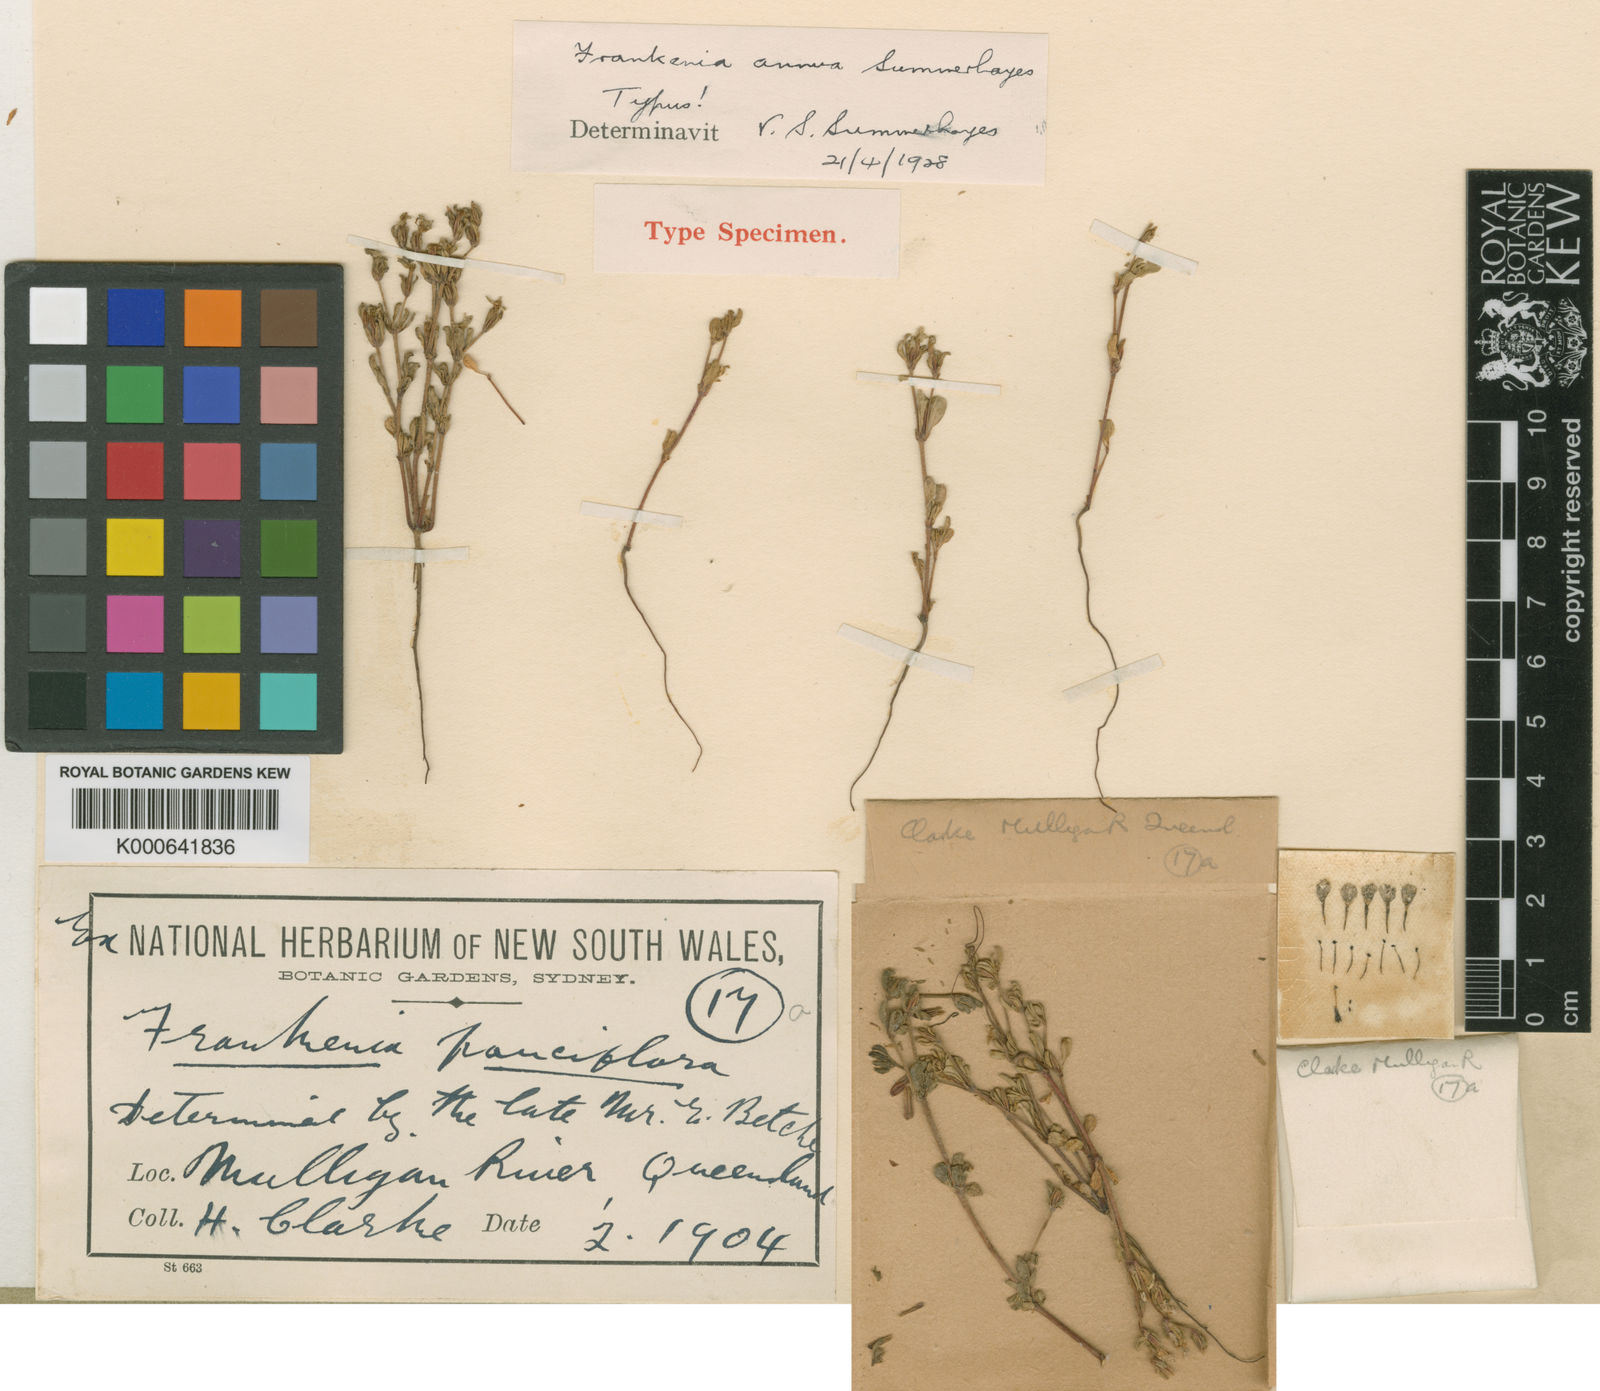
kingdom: Plantae
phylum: Tracheophyta
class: Magnoliopsida
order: Caryophyllales
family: Frankeniaceae
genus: Frankenia
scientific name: Frankenia cupularis
